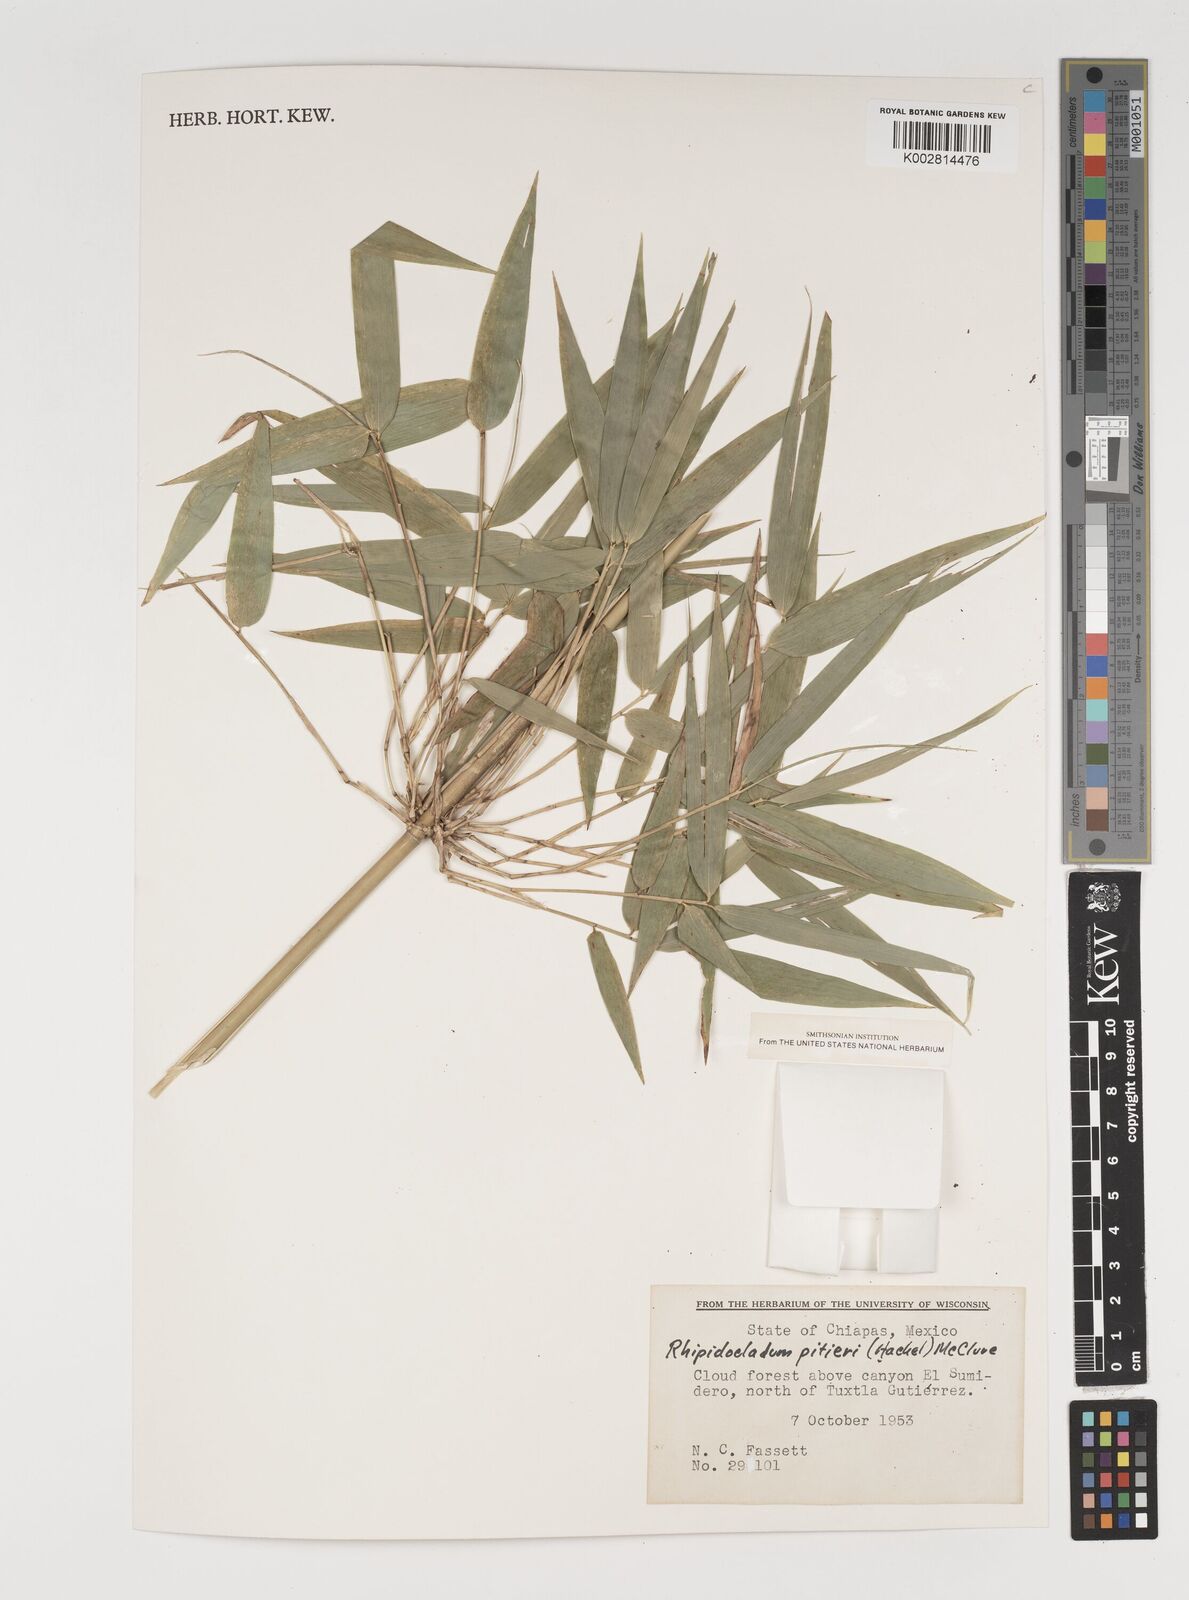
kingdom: Plantae
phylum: Tracheophyta
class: Liliopsida
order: Poales
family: Poaceae
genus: Rhipidocladum
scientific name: Rhipidocladum pittieri
